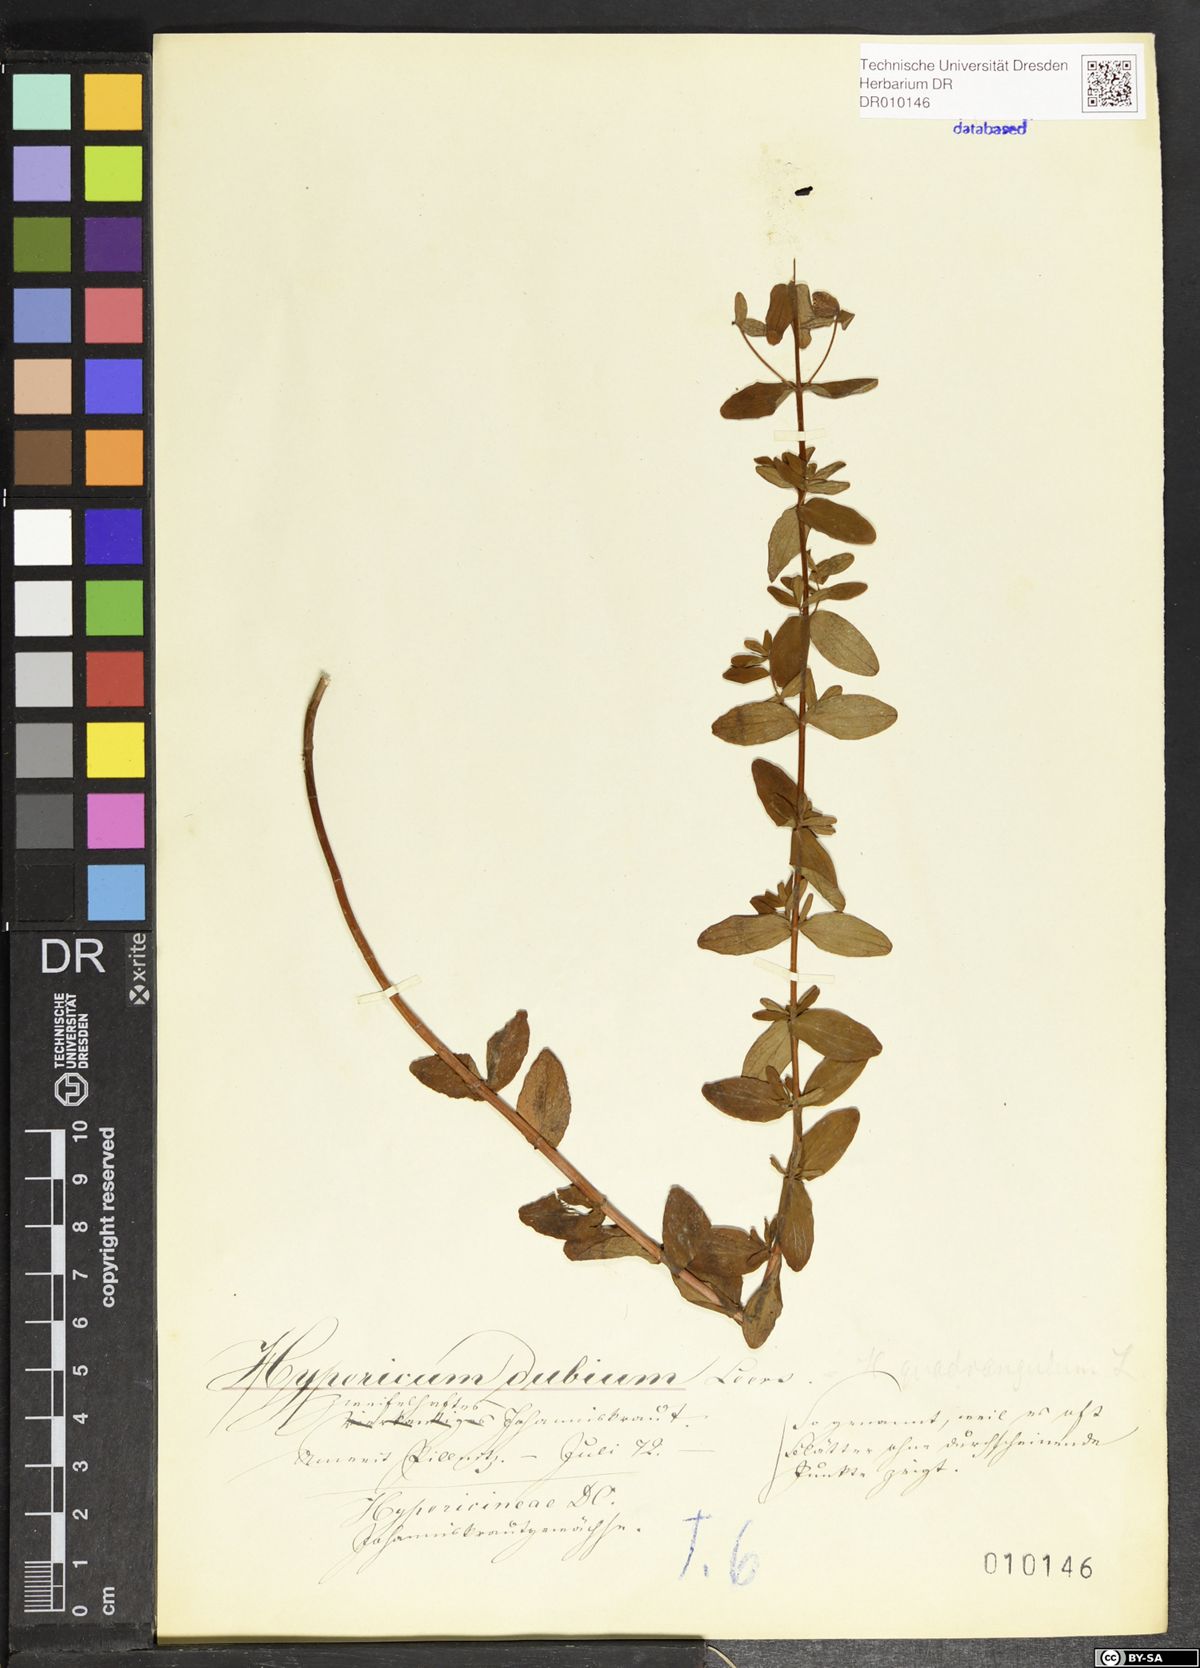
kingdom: Plantae
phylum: Tracheophyta
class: Magnoliopsida
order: Malpighiales
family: Hypericaceae
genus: Hypericum
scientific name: Hypericum maculatum
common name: Imperforate st. john's-wort
